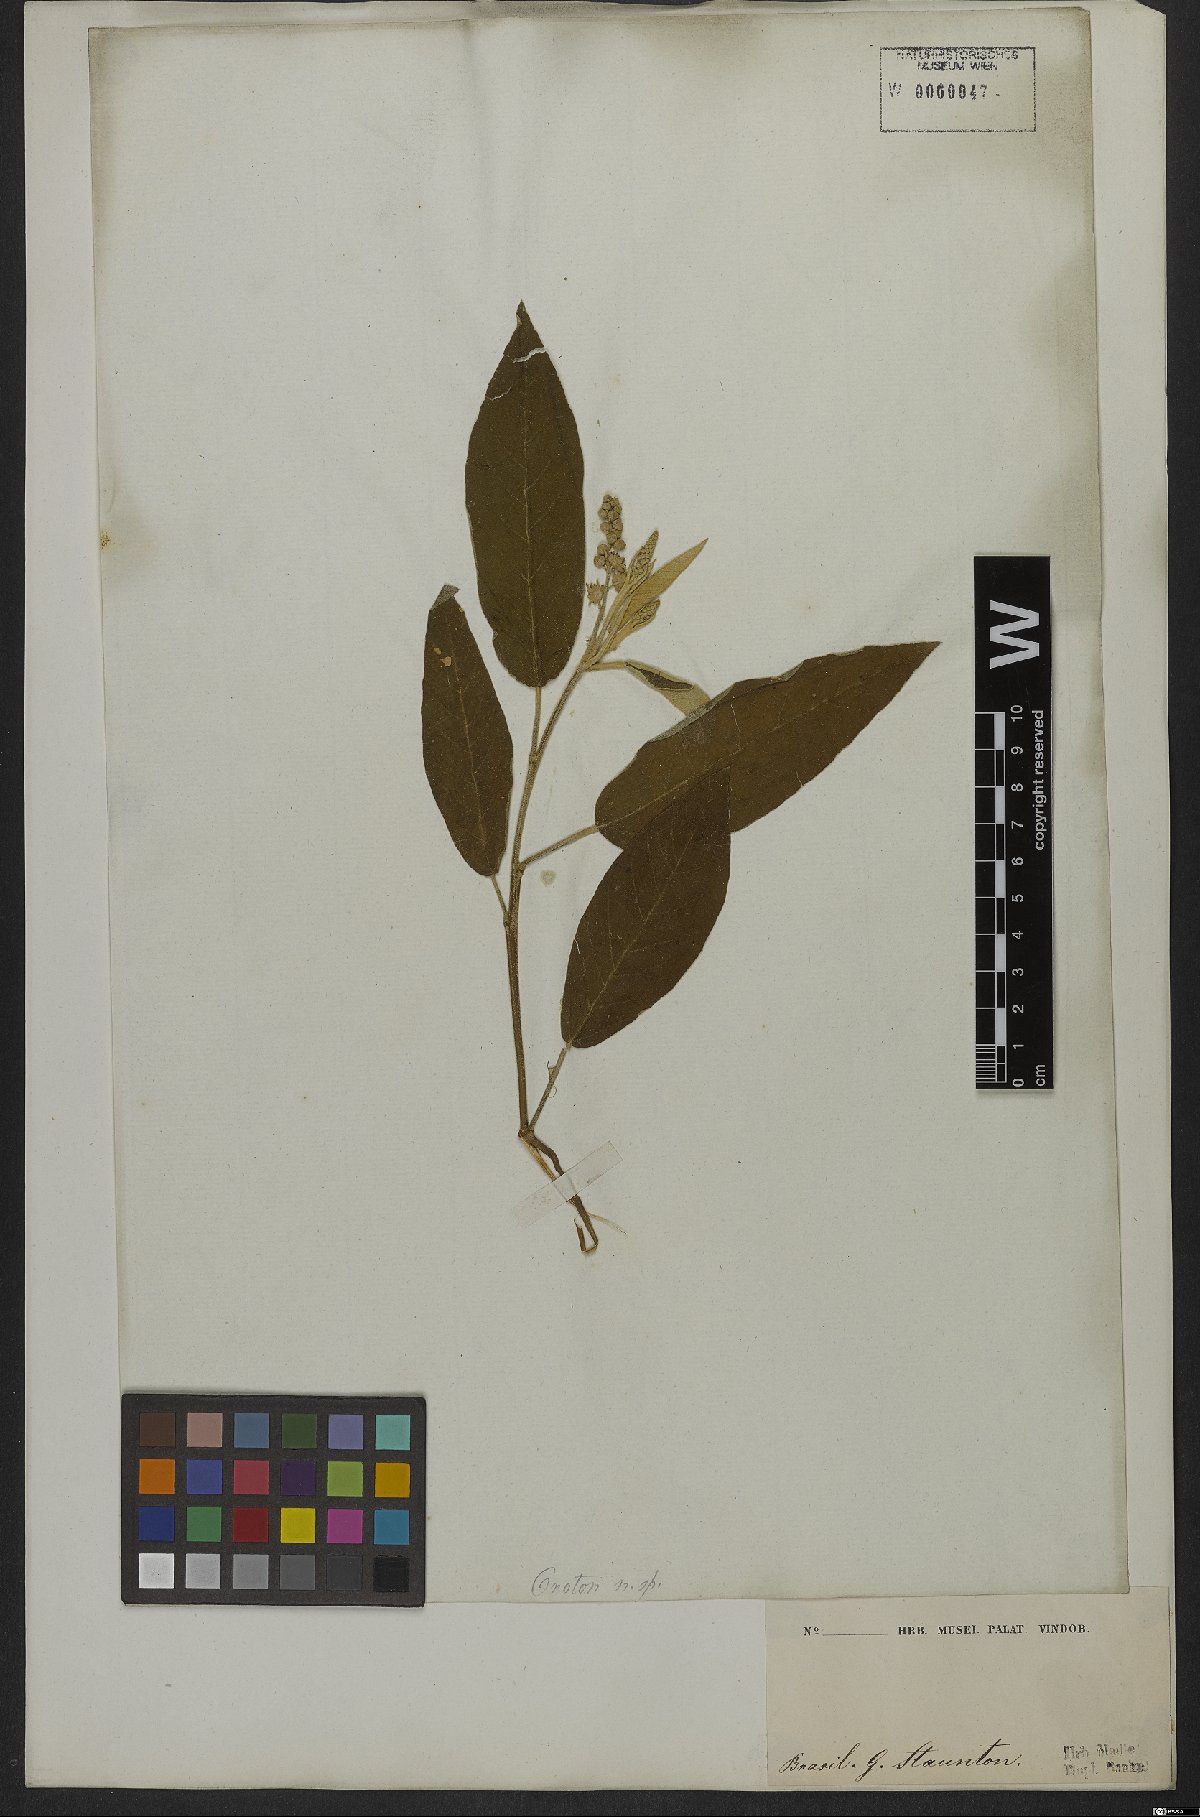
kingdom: Plantae
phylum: Tracheophyta
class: Magnoliopsida
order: Malpighiales
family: Euphorbiaceae
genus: Croton
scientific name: Croton compressus
